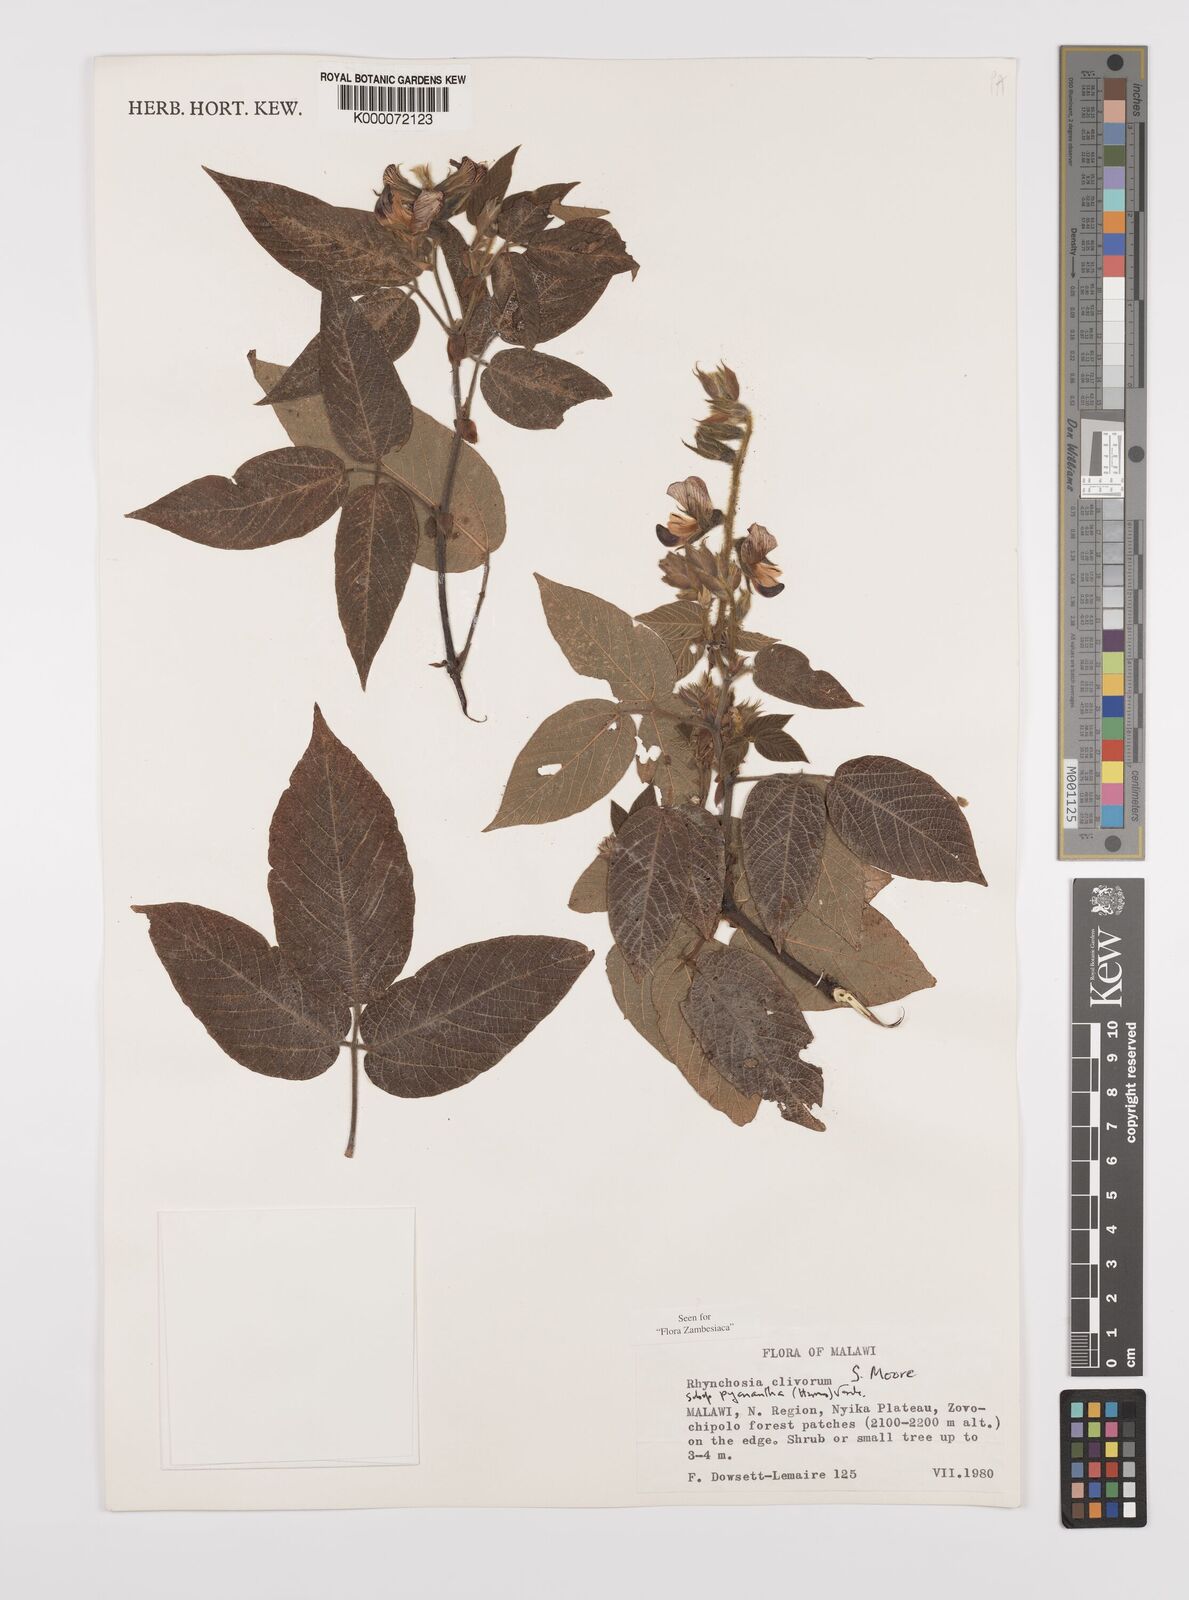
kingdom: Plantae
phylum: Tracheophyta
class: Magnoliopsida
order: Fabales
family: Fabaceae
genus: Rhynchosia
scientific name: Rhynchosia clivorum
